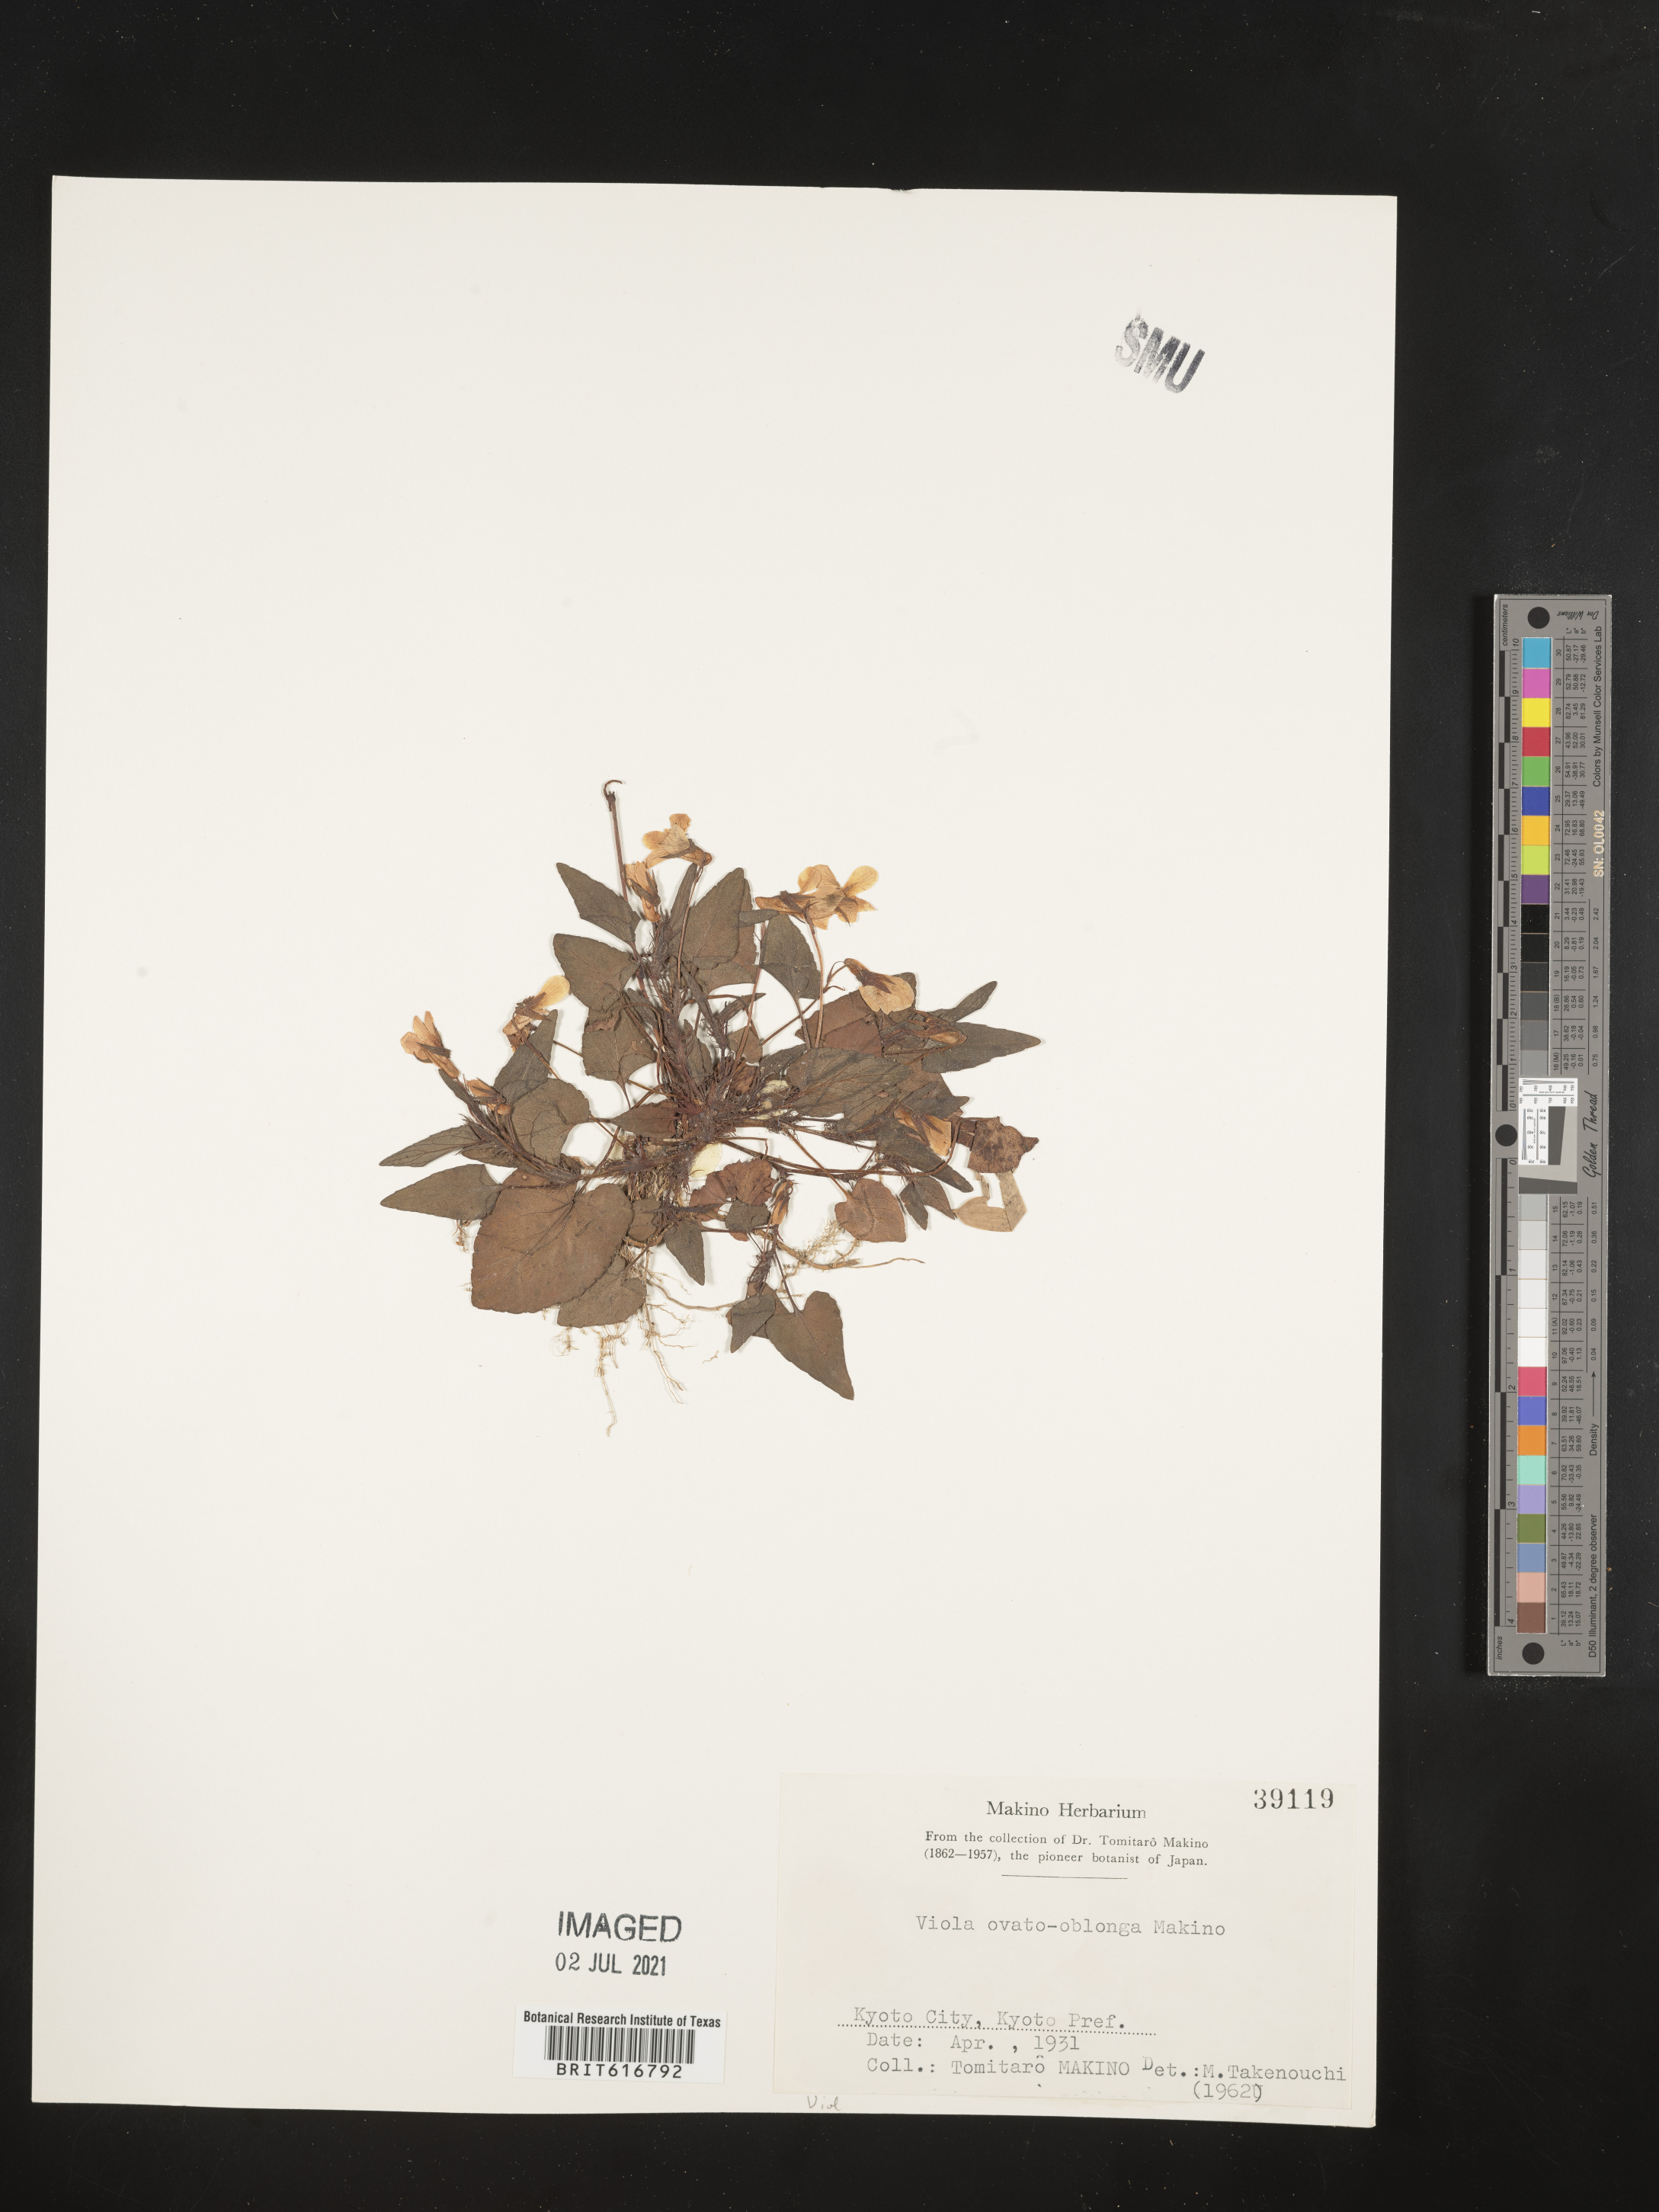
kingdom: Plantae
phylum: Tracheophyta
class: Magnoliopsida
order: Malpighiales
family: Violaceae
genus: Viola
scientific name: Viola ovatooblonga
